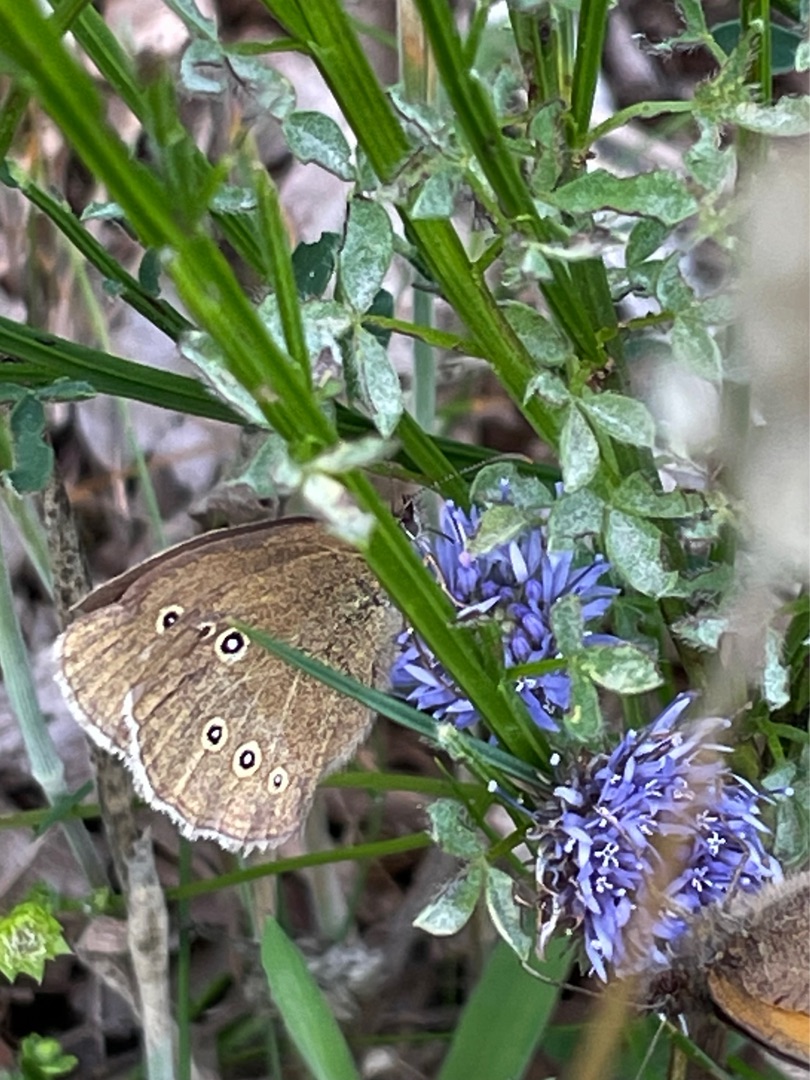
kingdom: Animalia
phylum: Arthropoda
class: Insecta
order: Lepidoptera
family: Nymphalidae
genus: Aphantopus
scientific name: Aphantopus hyperantus
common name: Engrandøje
